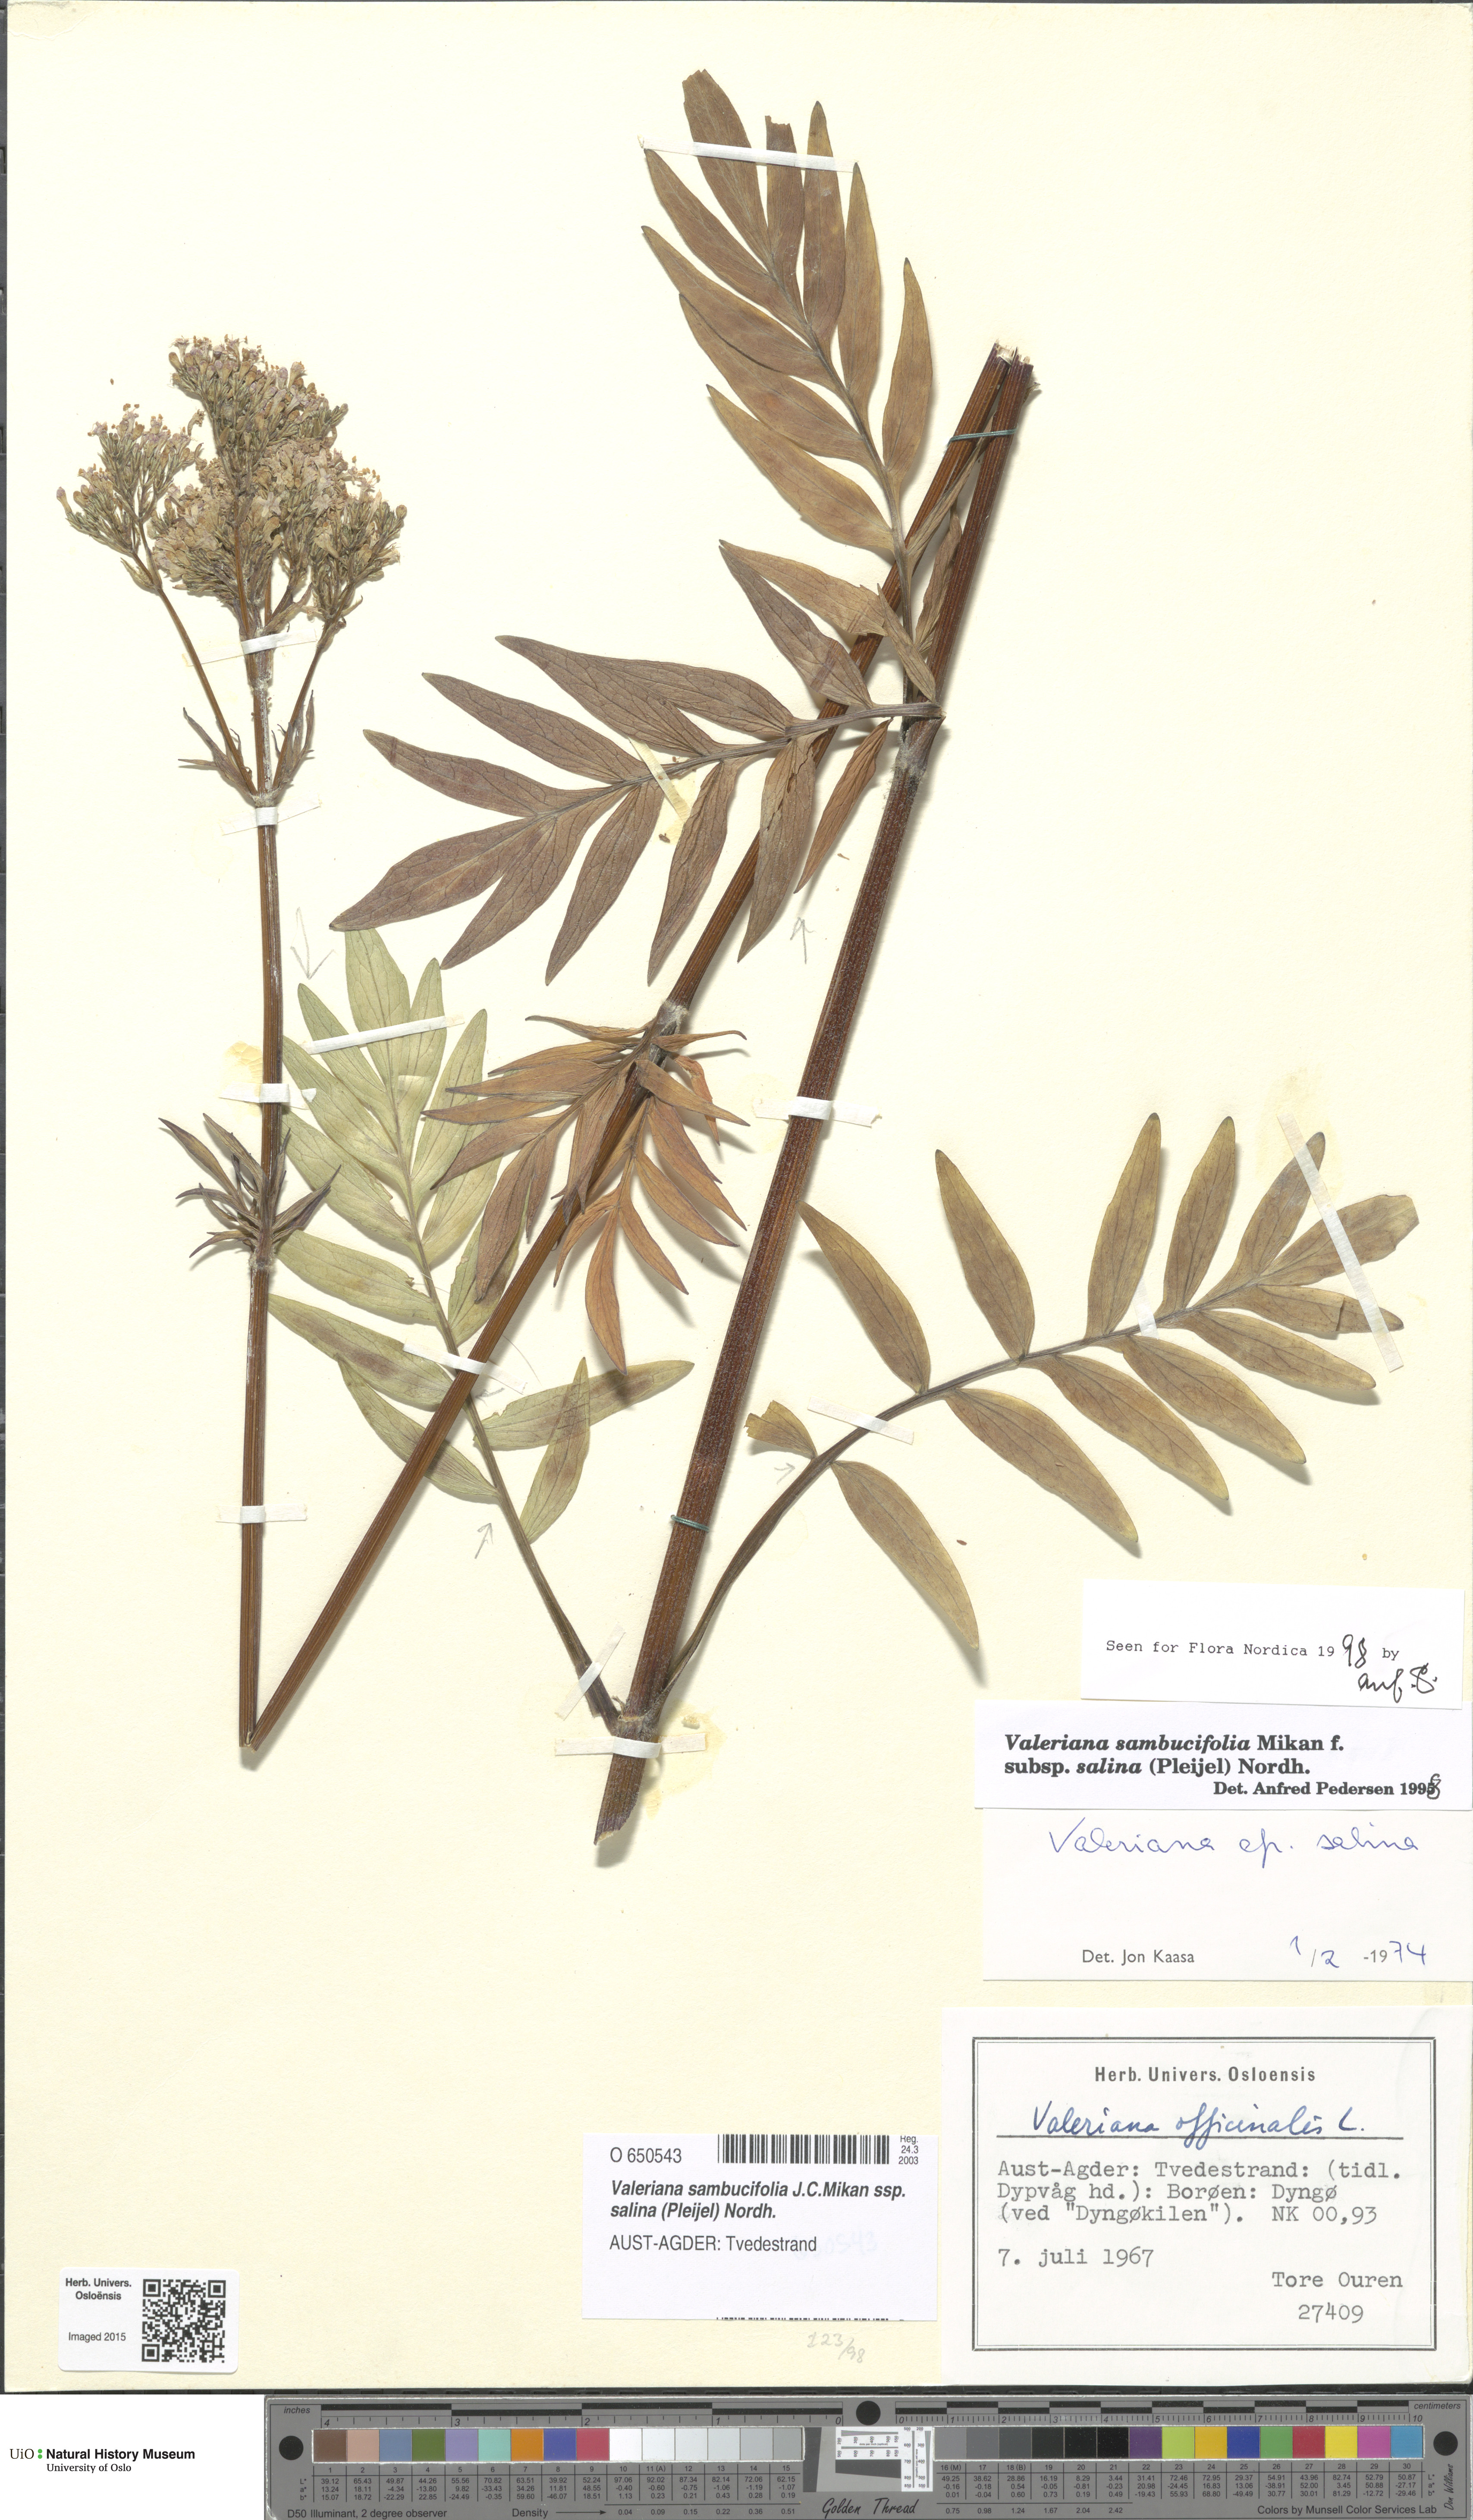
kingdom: Plantae
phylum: Tracheophyta
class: Magnoliopsida
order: Dipsacales
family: Caprifoliaceae
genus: Valeriana
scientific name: Valeriana sambucifolia
